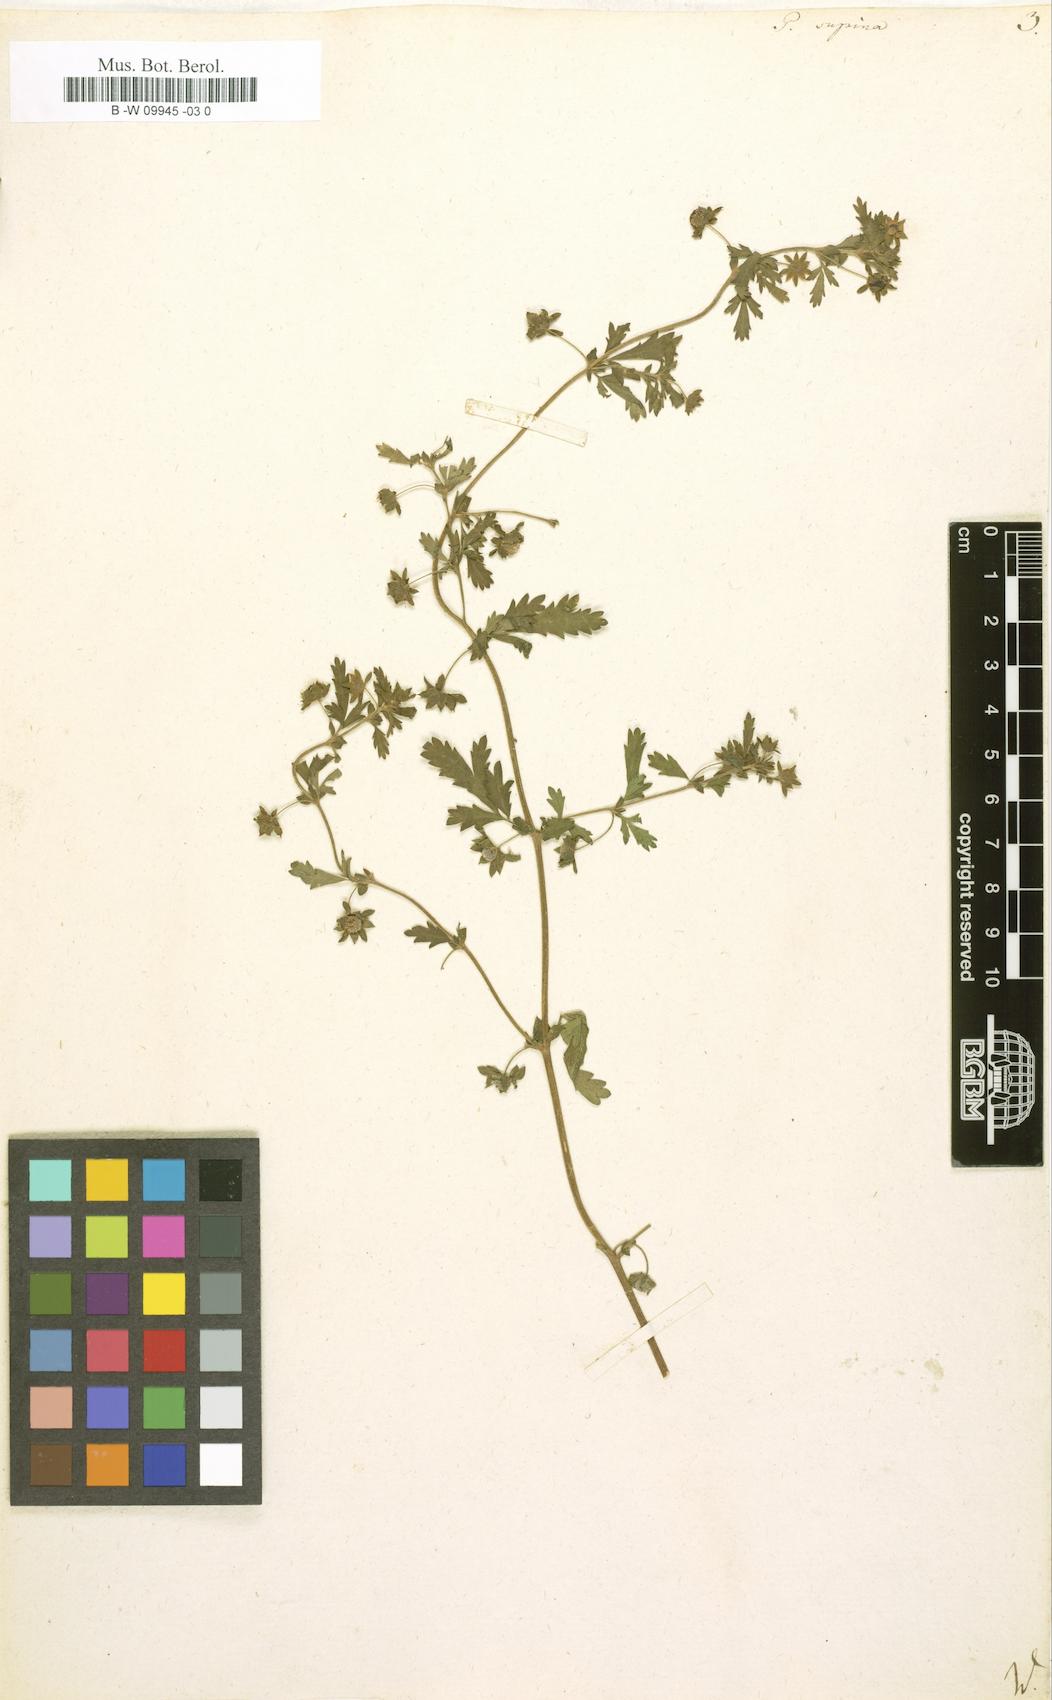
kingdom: Plantae
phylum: Tracheophyta
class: Magnoliopsida
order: Rosales
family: Rosaceae
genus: Potentilla
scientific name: Potentilla supina
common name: Prostrate cinquefoil
